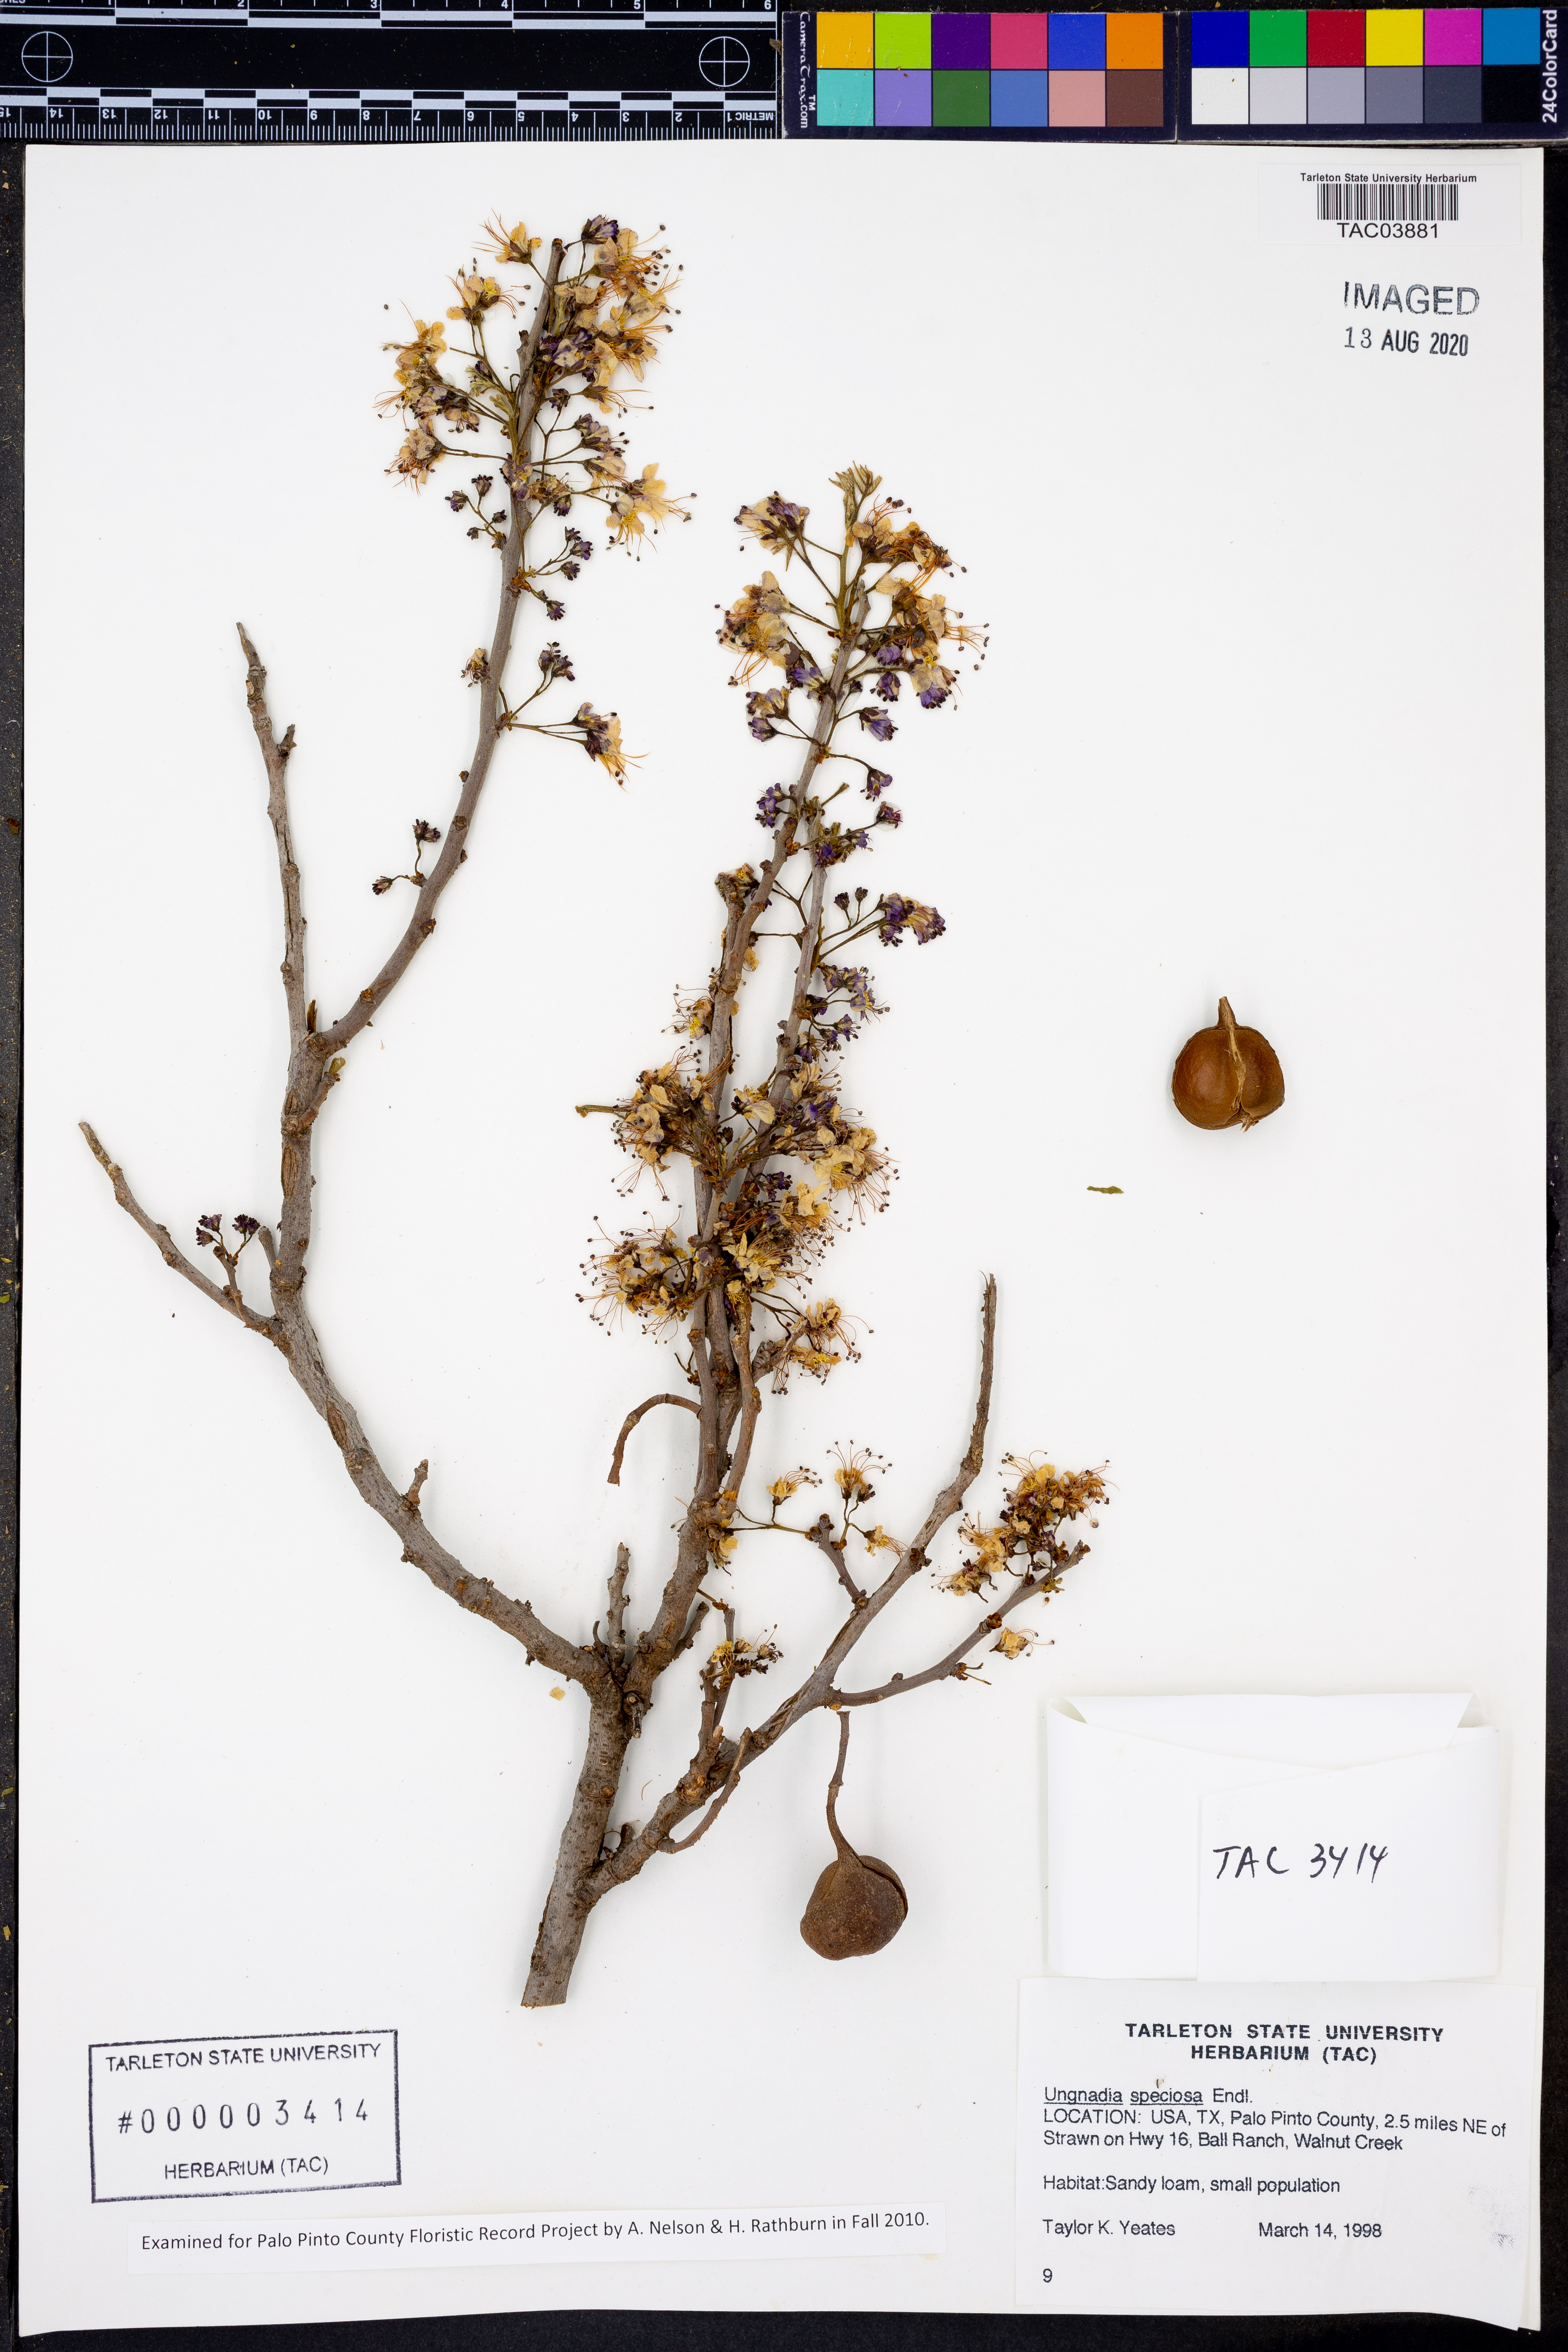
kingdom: Plantae
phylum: Tracheophyta
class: Magnoliopsida
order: Sapindales
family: Sapindaceae
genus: Ungnadia
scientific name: Ungnadia speciosa
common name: Texas-buckeye
